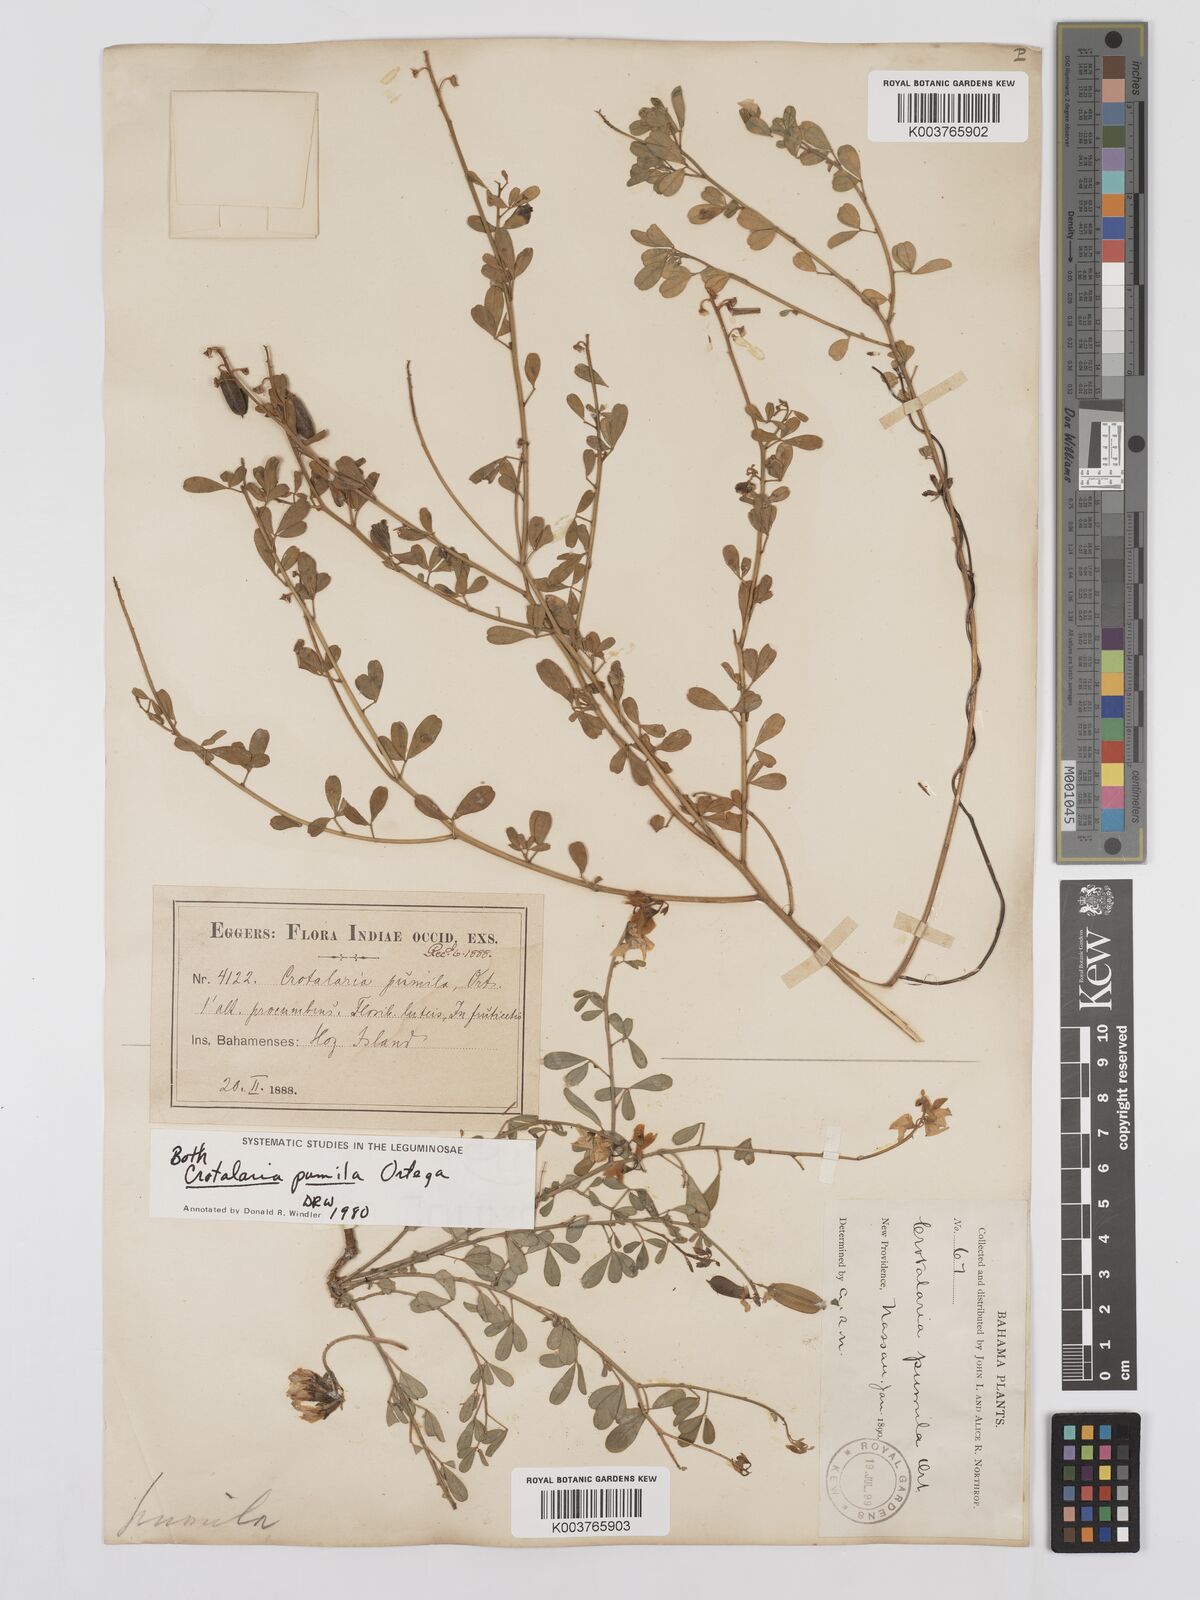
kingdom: Plantae
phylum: Tracheophyta
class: Magnoliopsida
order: Fabales
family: Fabaceae
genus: Crotalaria
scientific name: Crotalaria pumila
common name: Low rattlebox
